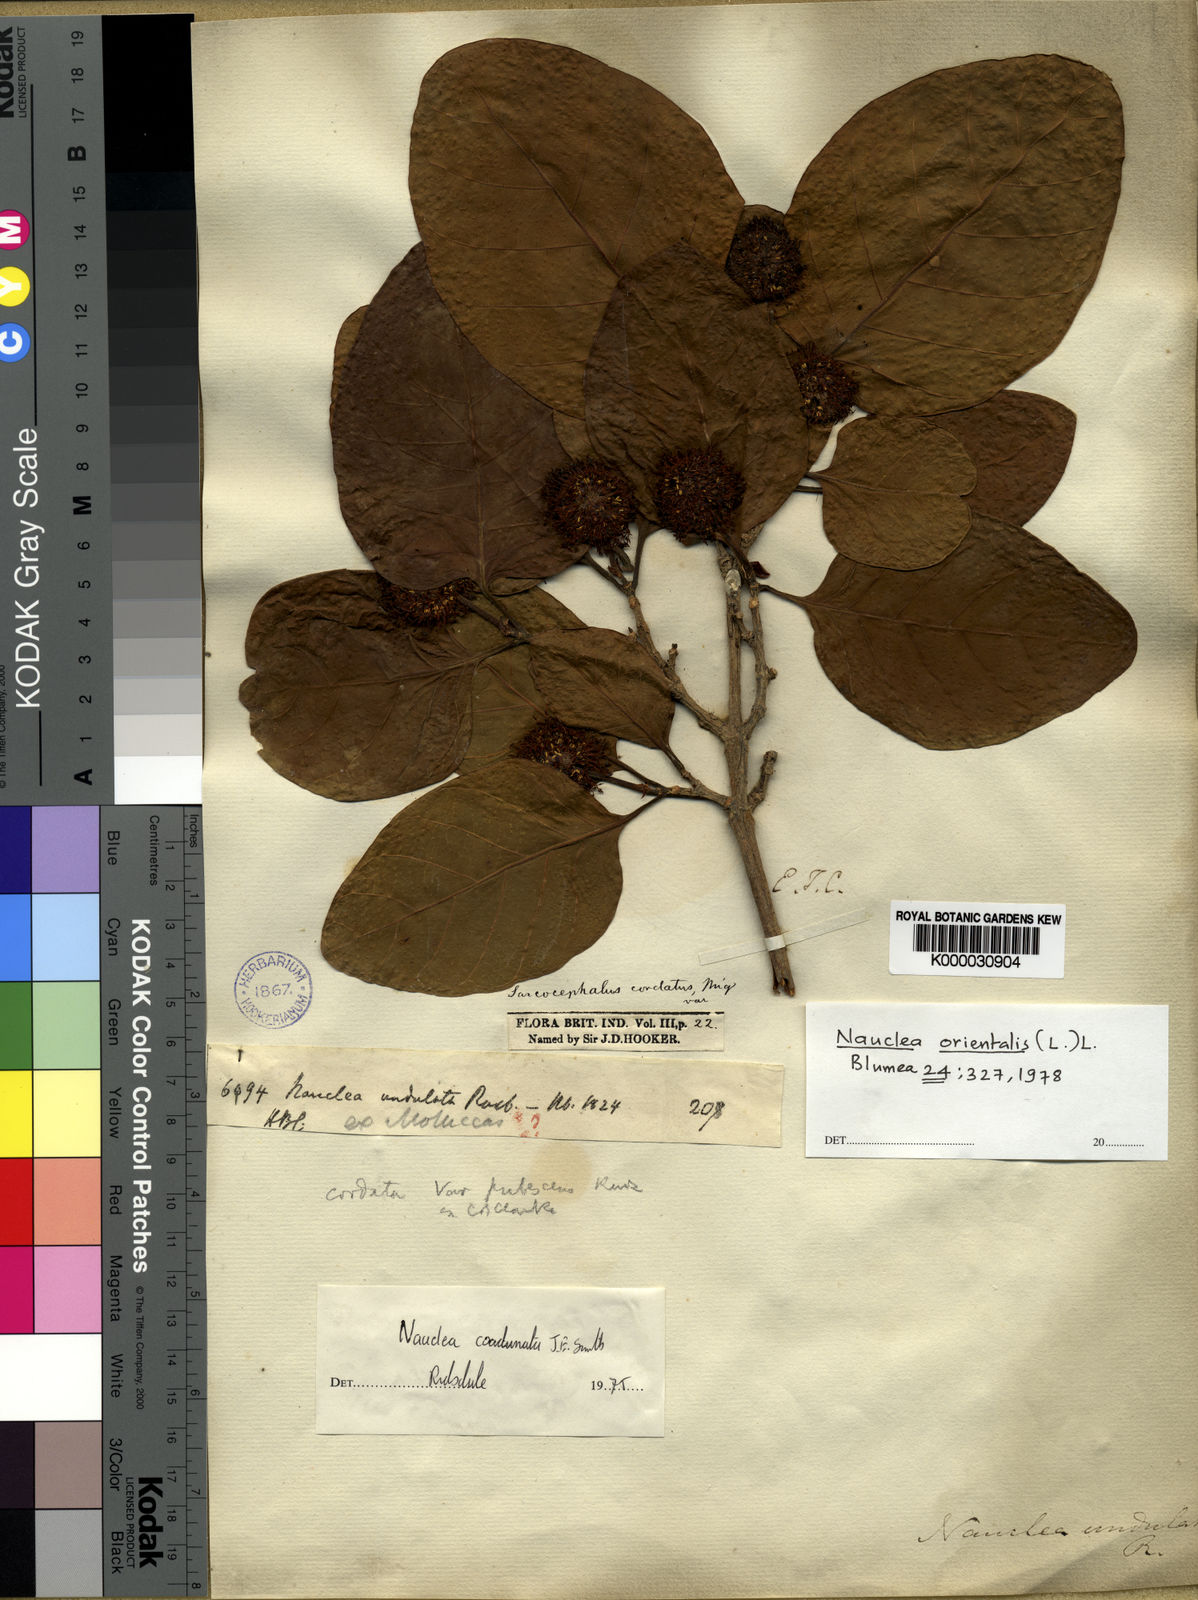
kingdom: Plantae
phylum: Tracheophyta
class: Magnoliopsida
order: Gentianales
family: Rubiaceae
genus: Nauclea
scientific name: Nauclea orientalis
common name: Leichhardt-pine
